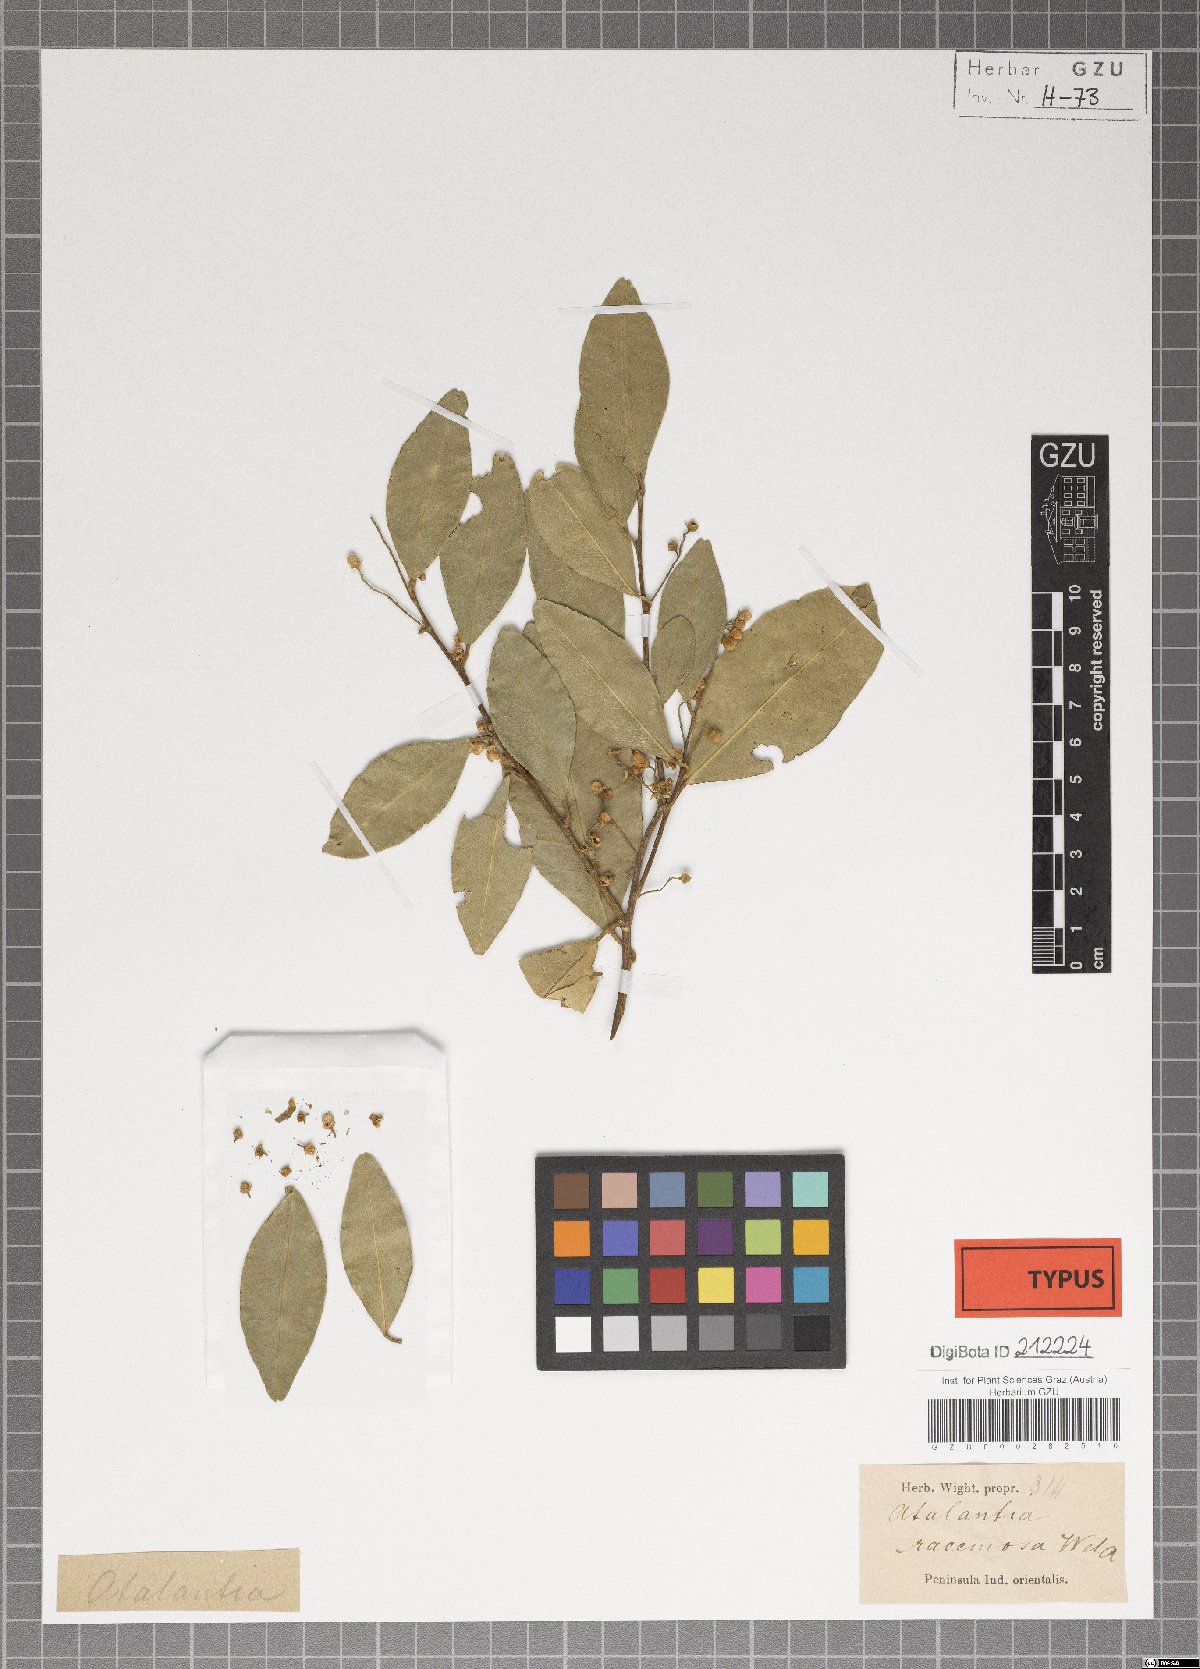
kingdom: Plantae
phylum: Tracheophyta
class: Magnoliopsida
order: Sapindales
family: Rutaceae
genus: Atalantia
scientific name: Atalantia racemosa
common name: Bombay atalantia
